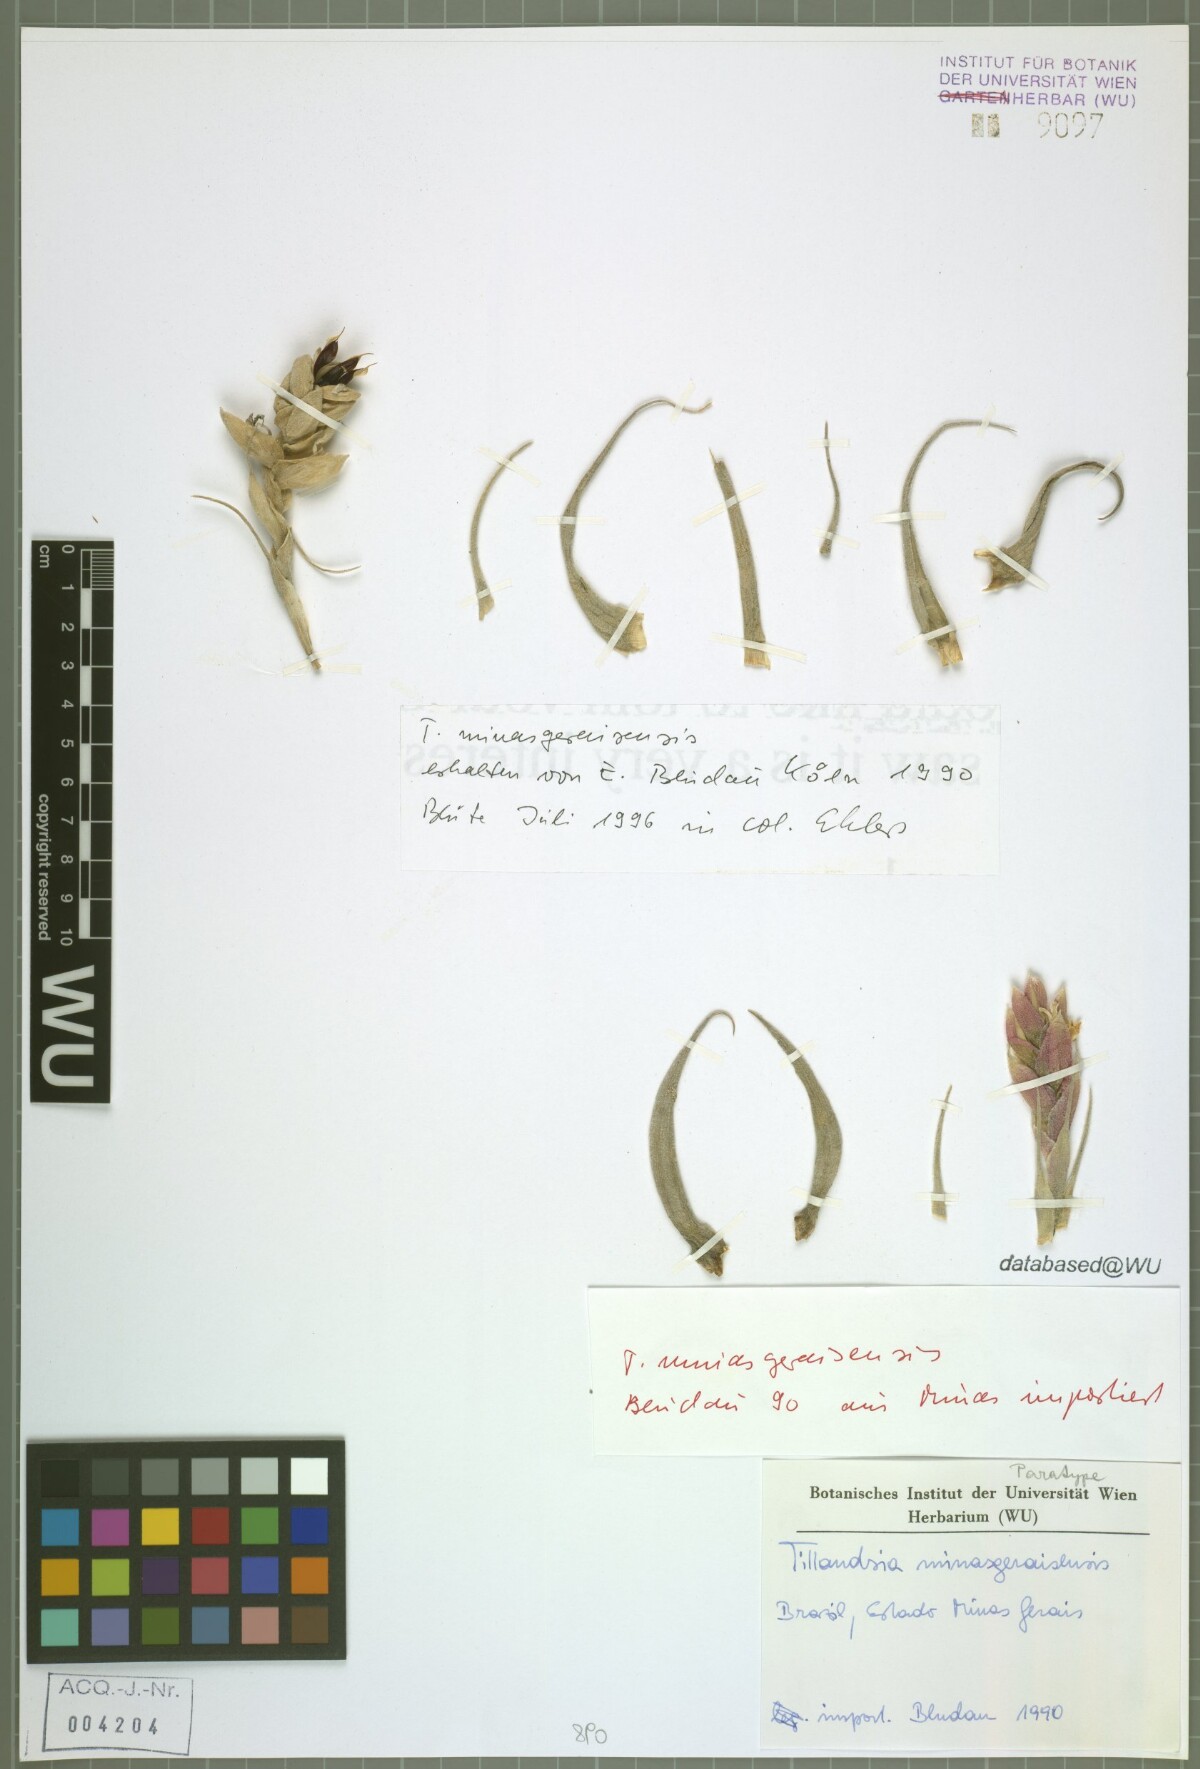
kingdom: Plantae
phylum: Tracheophyta
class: Liliopsida
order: Poales
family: Bromeliaceae
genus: Tillandsia
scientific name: Tillandsia minasgeraisensis
